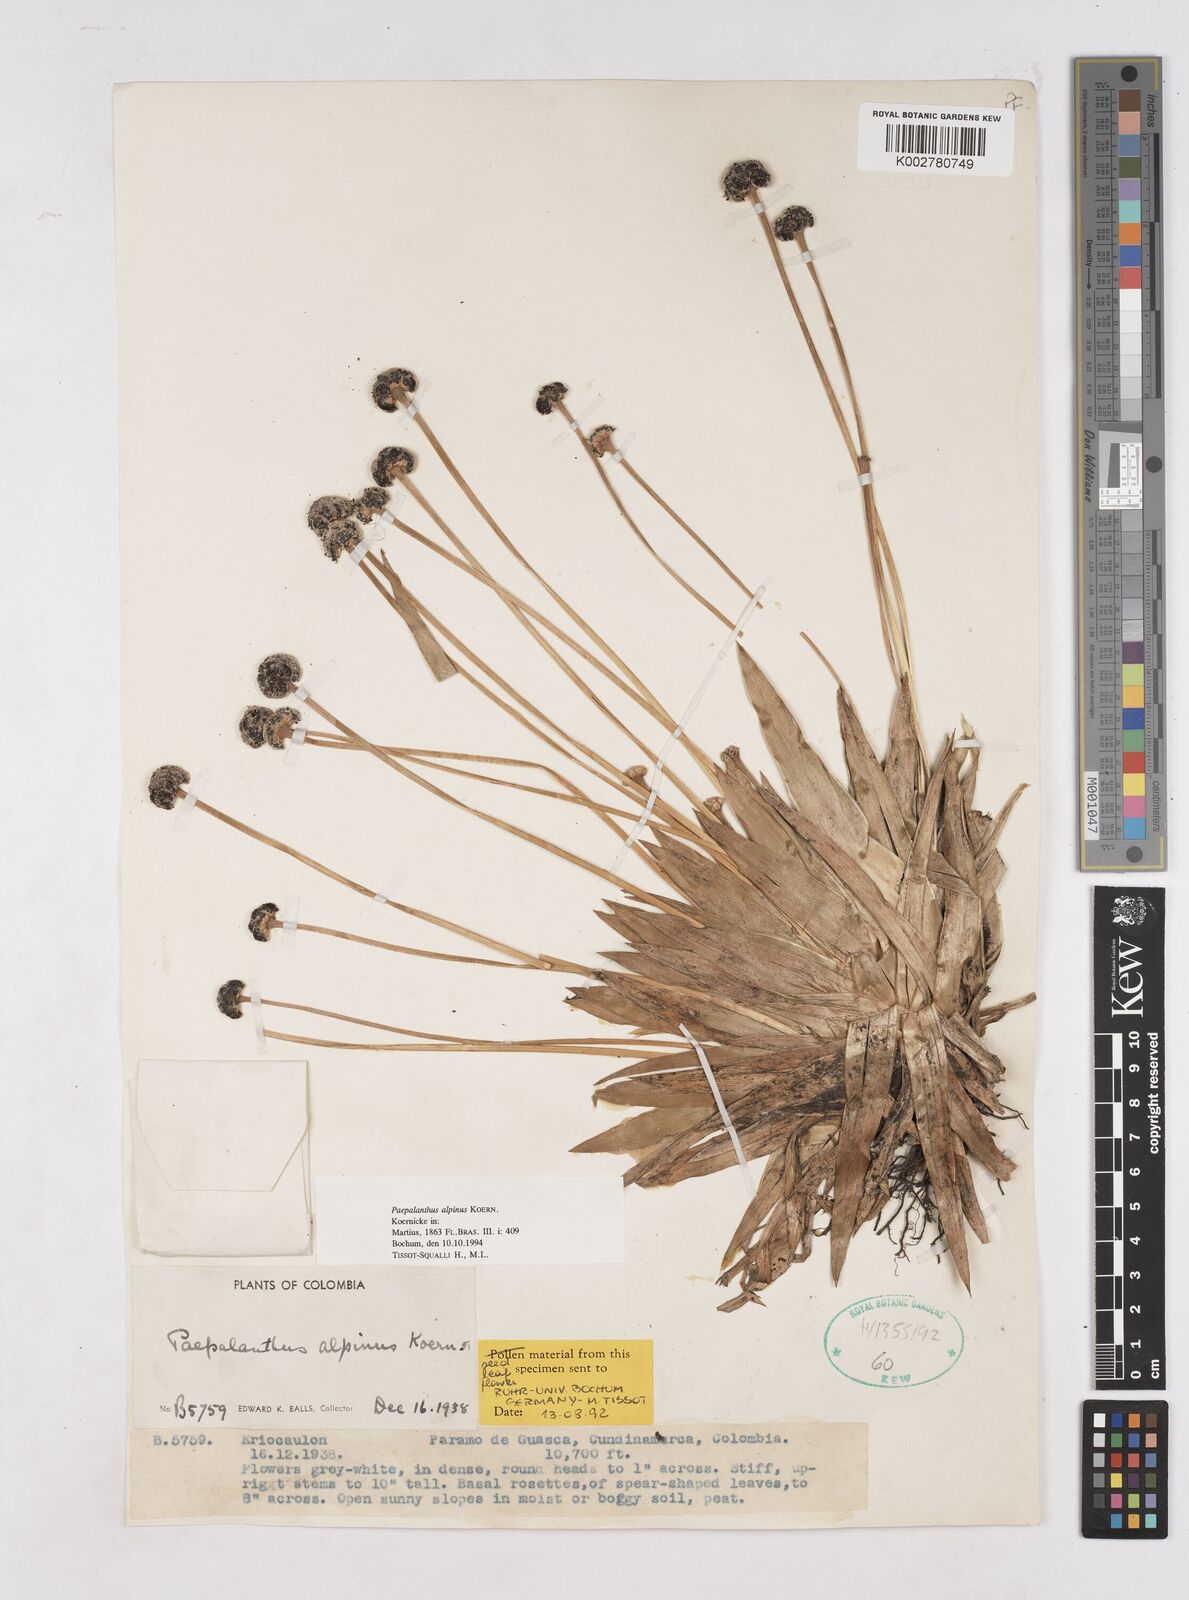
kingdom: Plantae
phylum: Tracheophyta
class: Liliopsida
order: Poales
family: Eriocaulaceae
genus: Paepalanthus
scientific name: Paepalanthus alpinus
